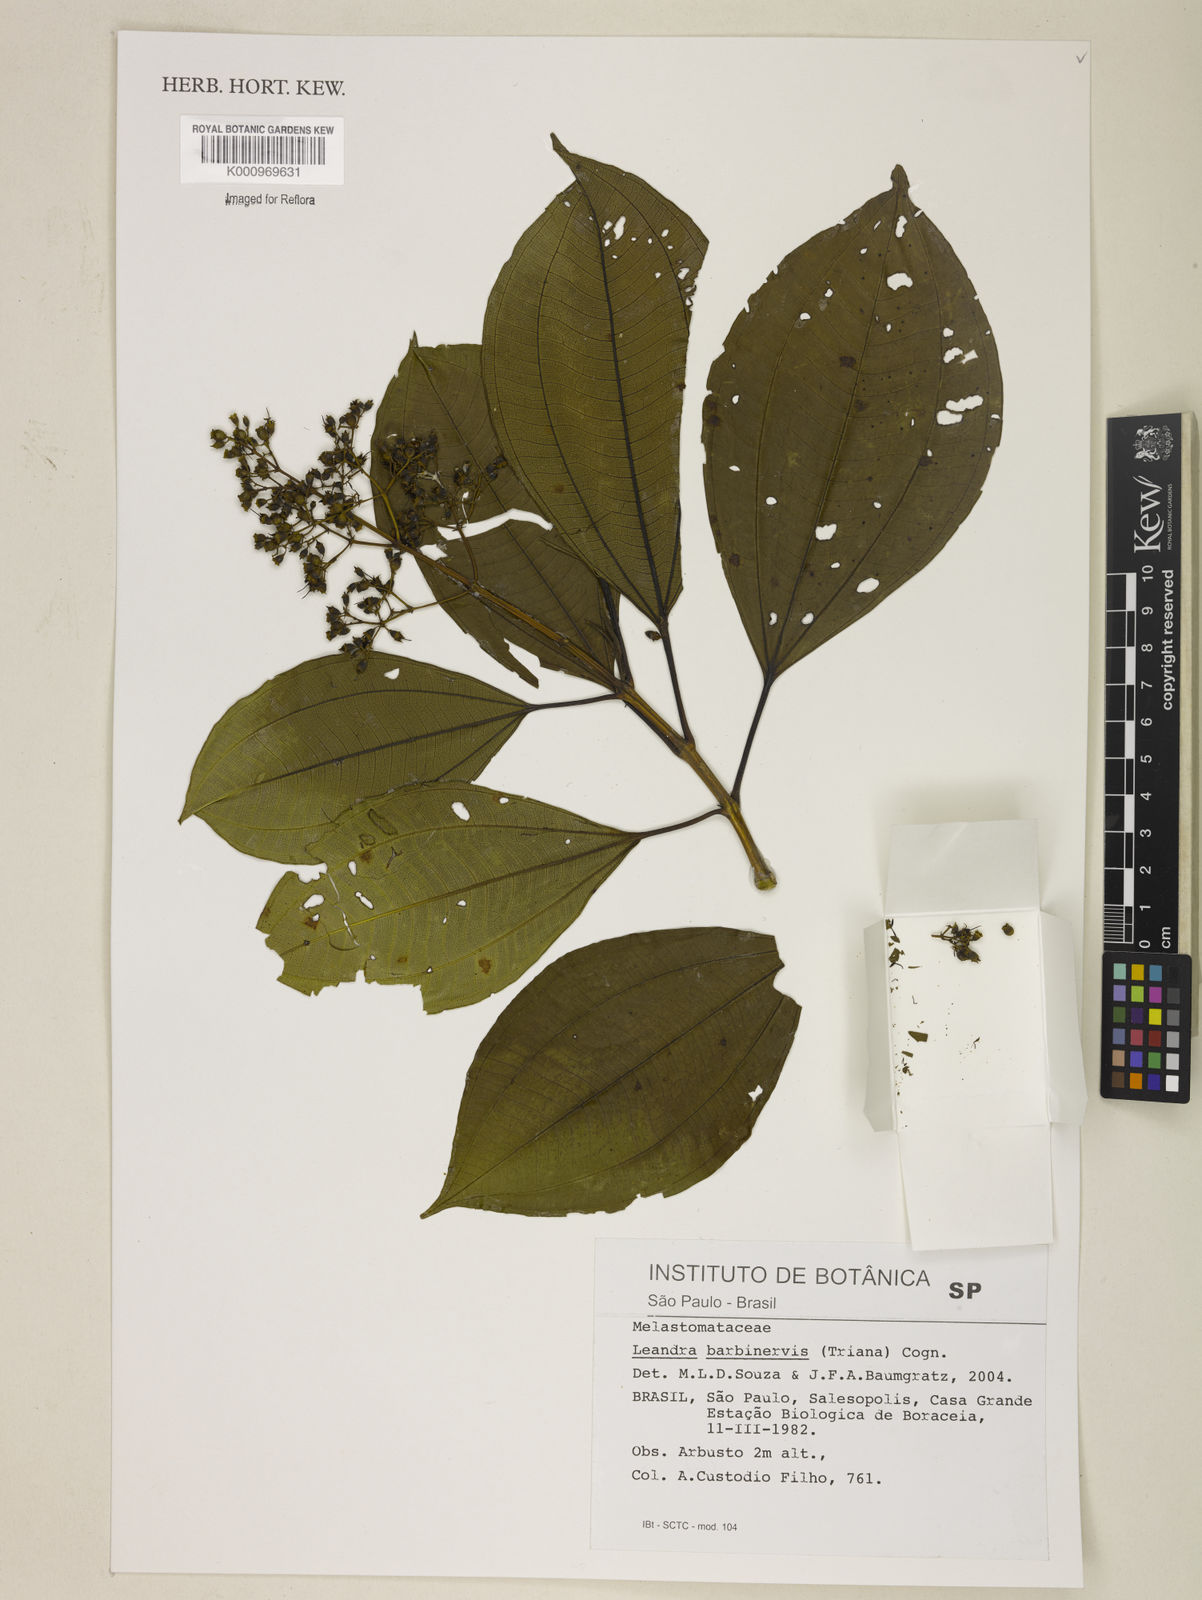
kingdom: Plantae
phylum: Tracheophyta
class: Magnoliopsida
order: Myrtales
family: Melastomataceae
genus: Miconia
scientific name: Miconia trauninensis
